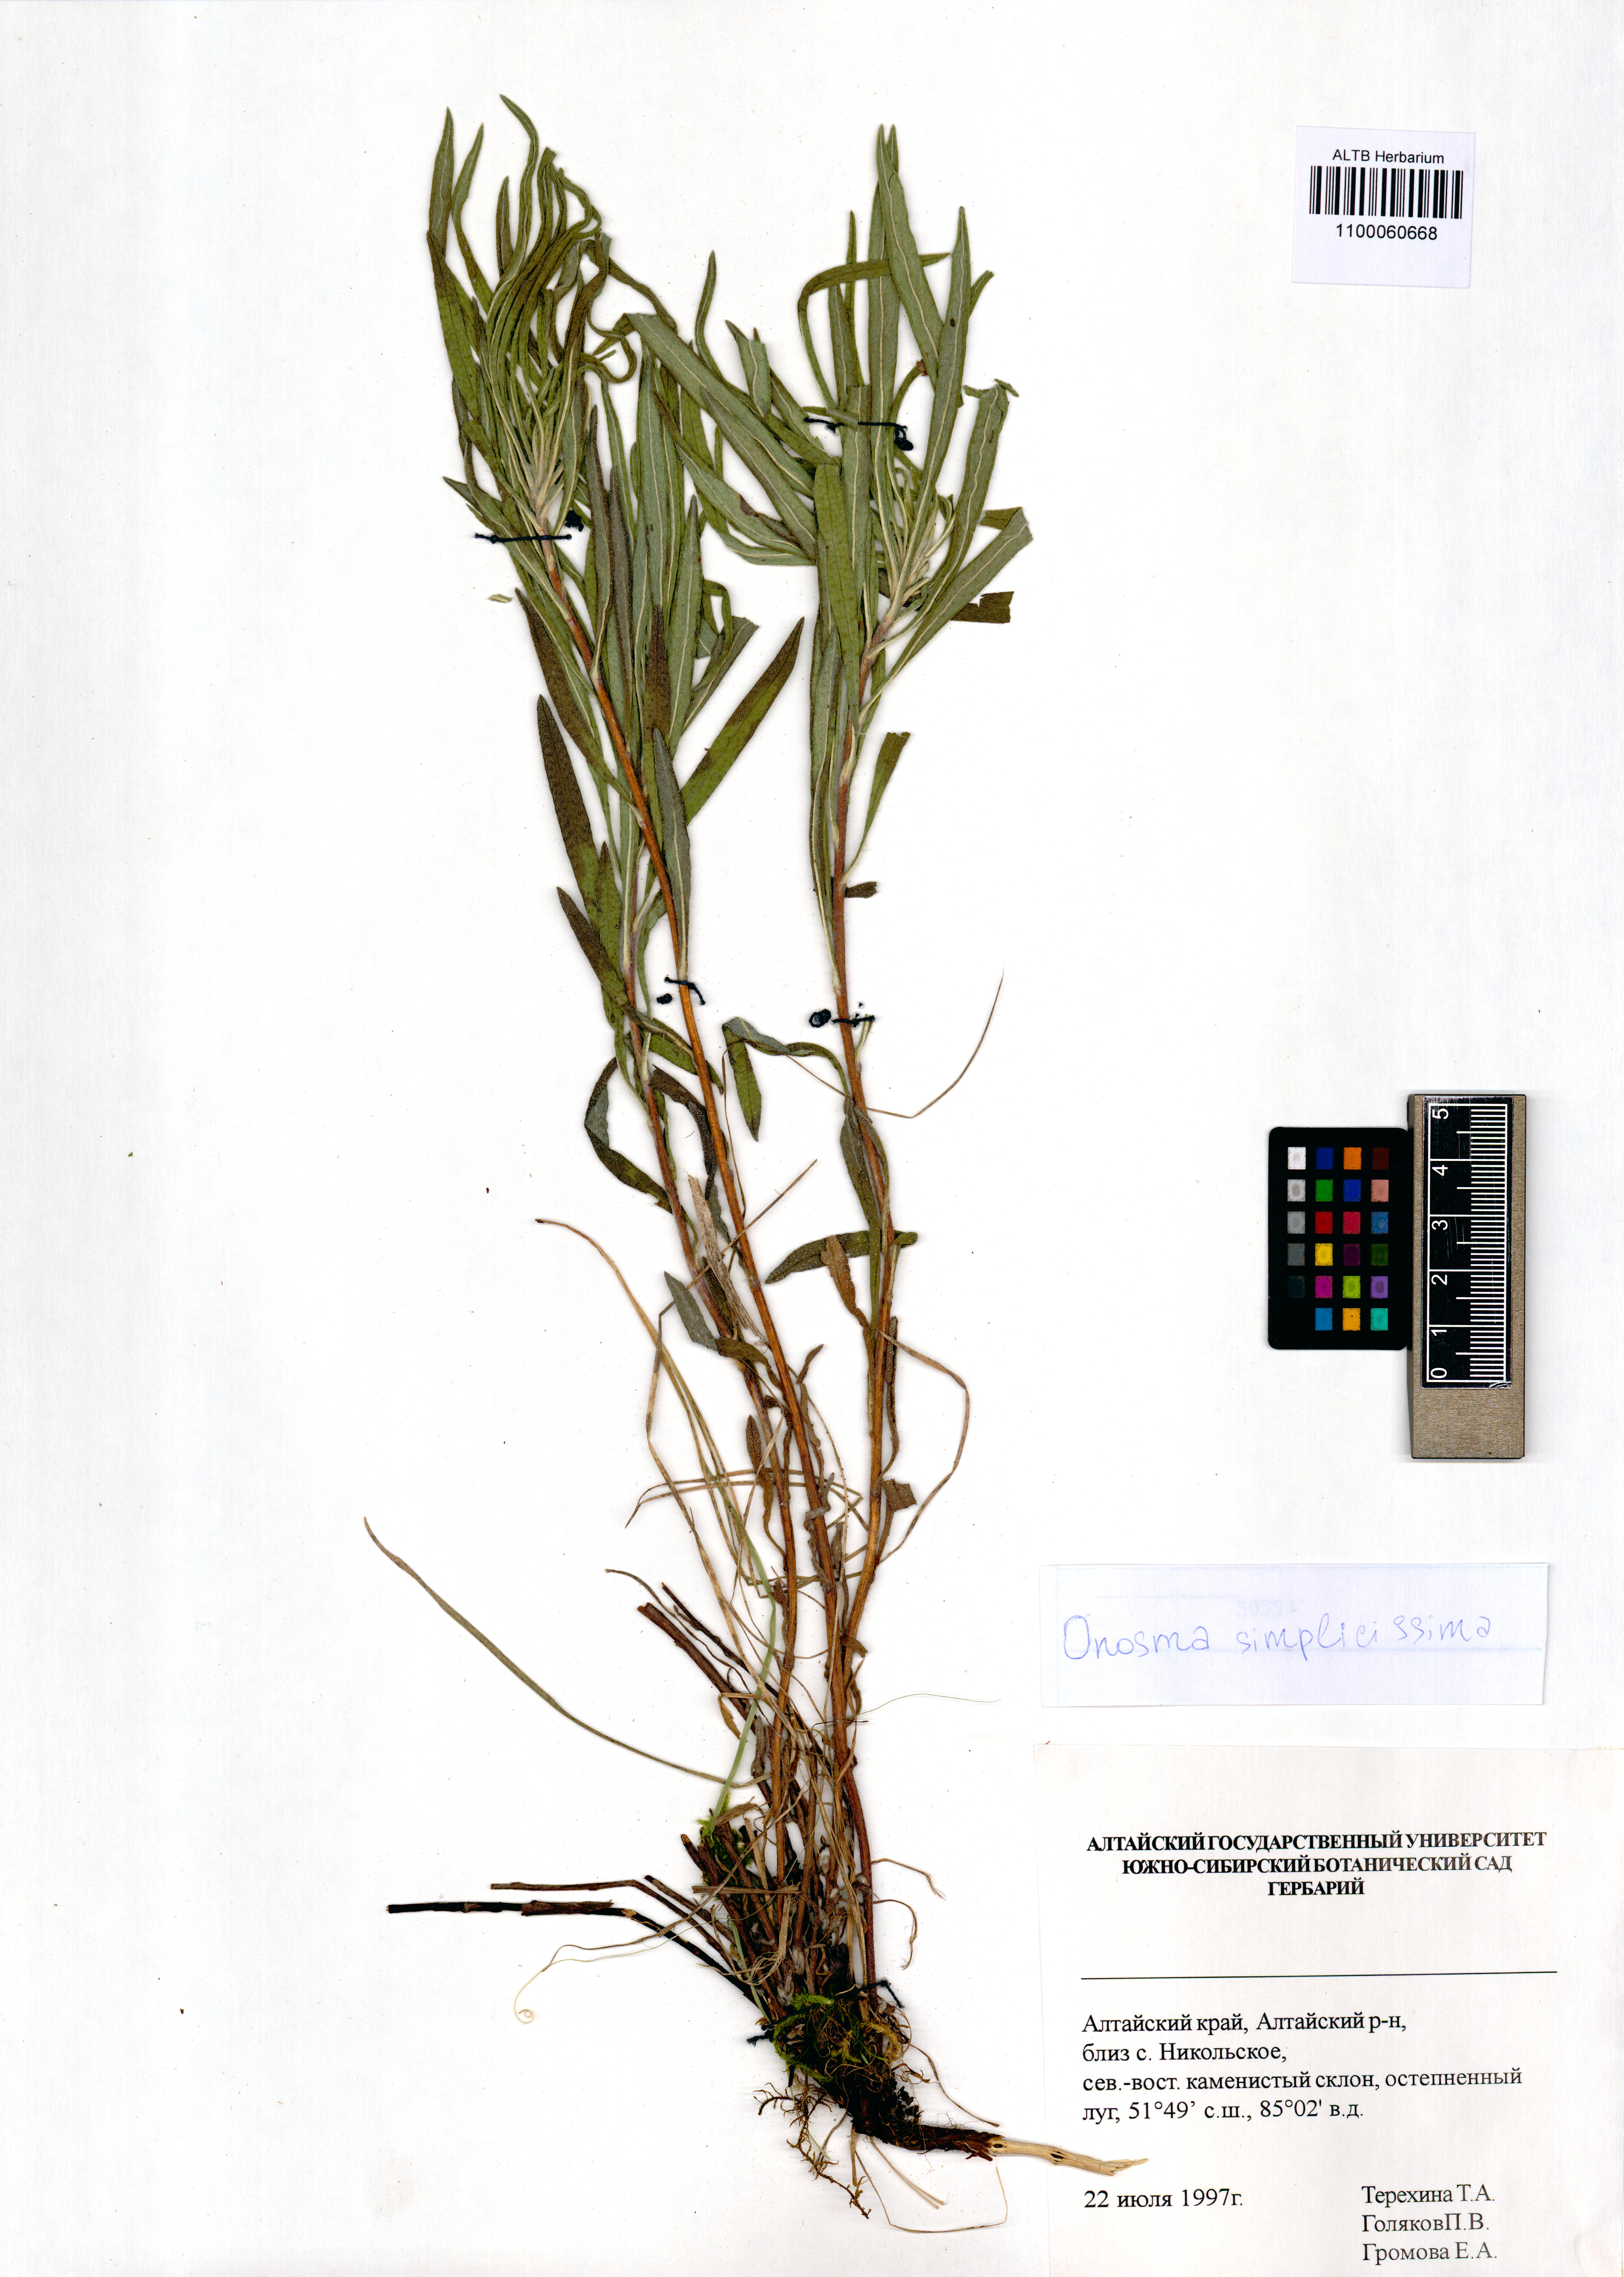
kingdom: Plantae
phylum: Tracheophyta
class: Magnoliopsida
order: Boraginales
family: Boraginaceae
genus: Onosma
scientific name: Onosma simplicissima
